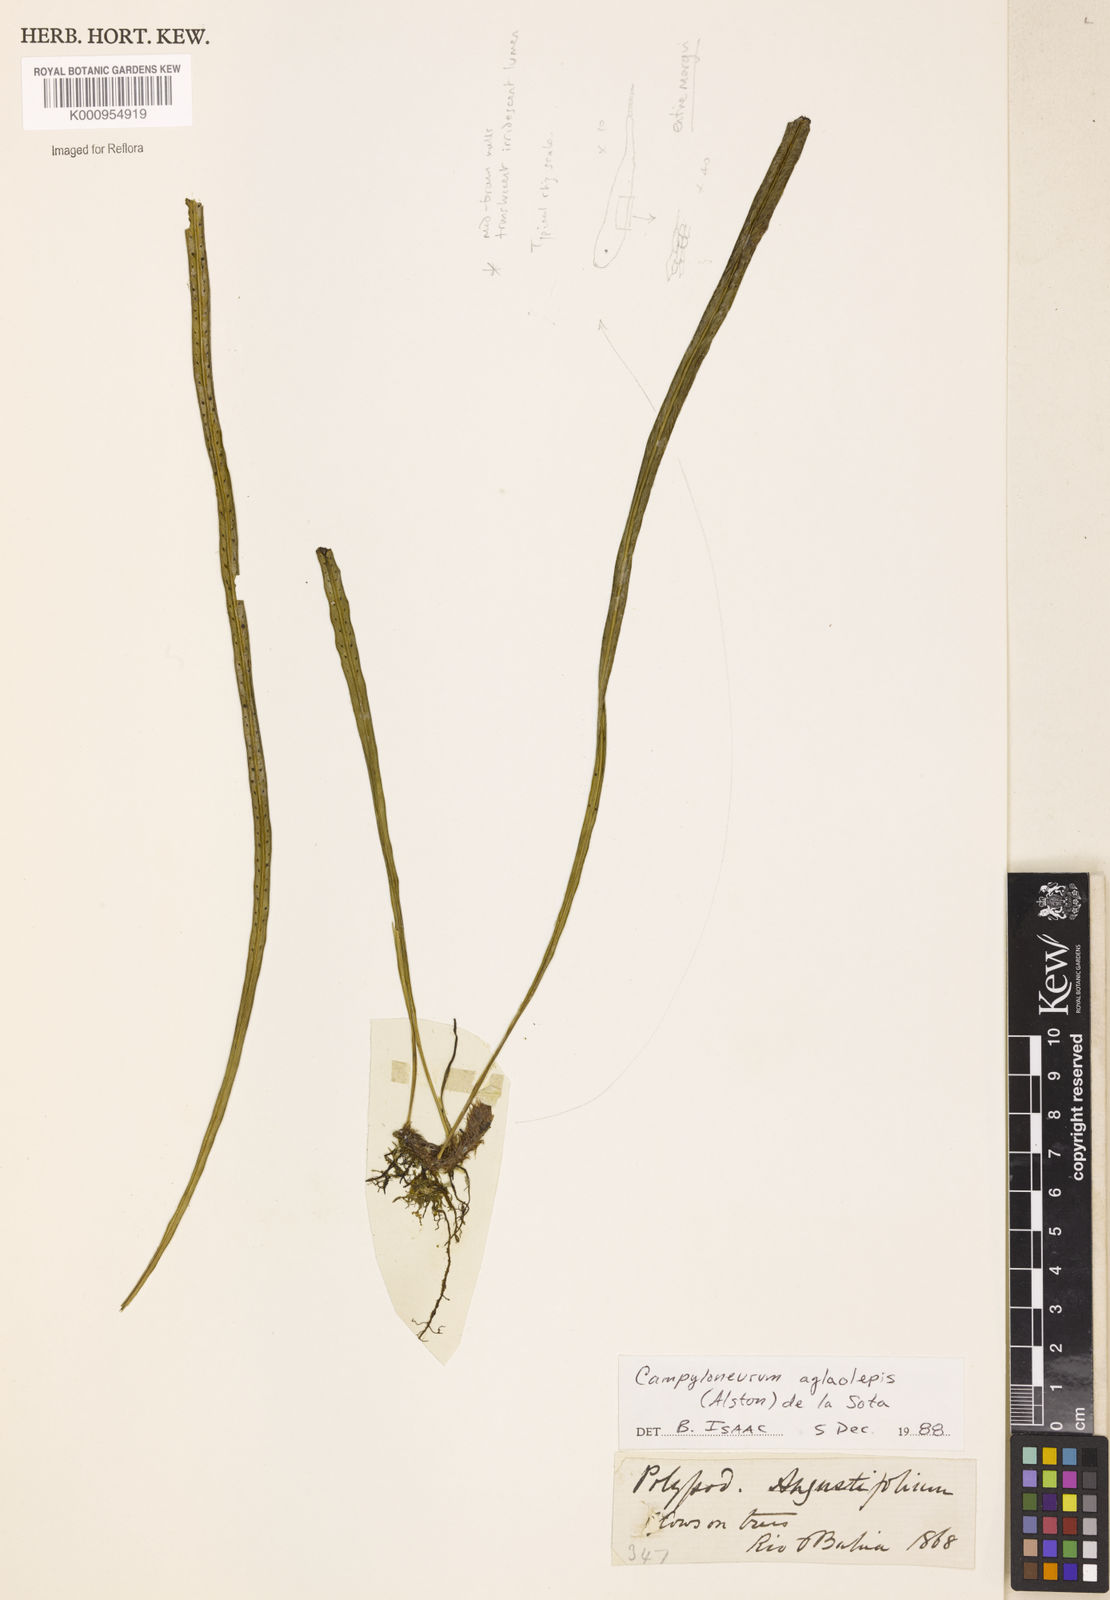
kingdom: Plantae
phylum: Tracheophyta
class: Polypodiopsida
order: Polypodiales
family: Polypodiaceae
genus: Campyloneurum
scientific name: Campyloneurum
